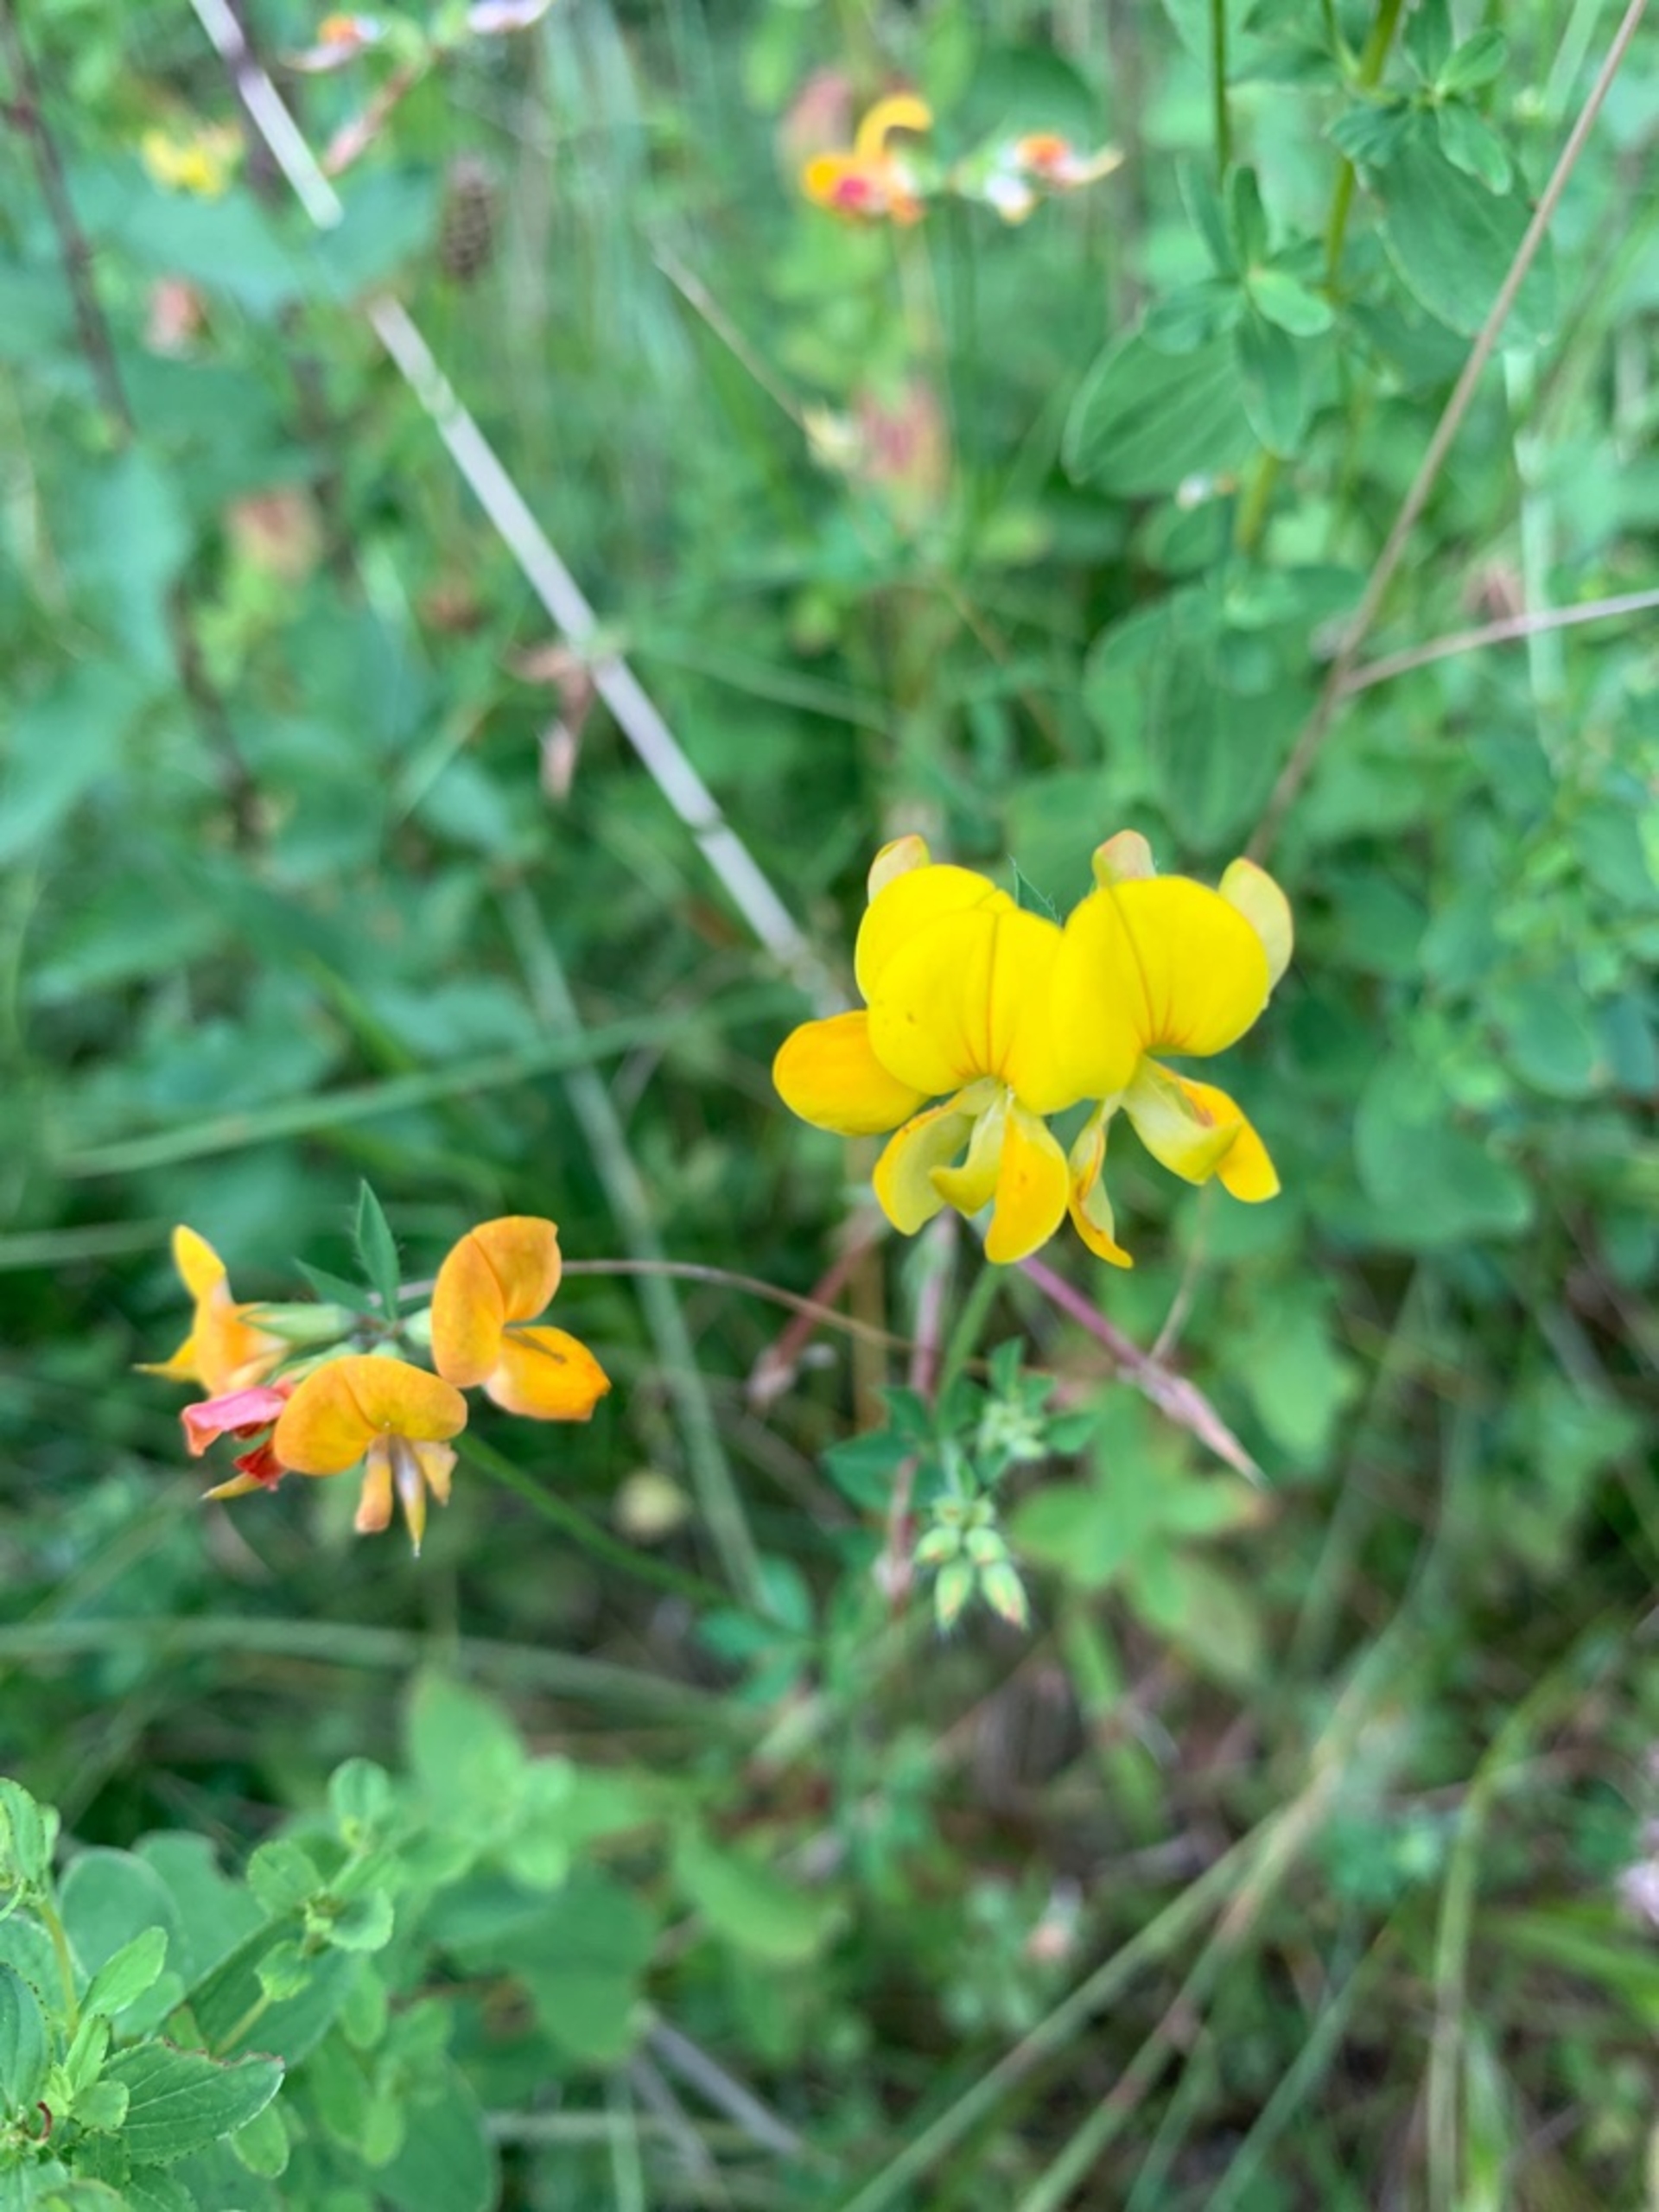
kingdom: Plantae
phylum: Tracheophyta
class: Magnoliopsida
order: Fabales
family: Fabaceae
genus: Lotus
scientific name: Lotus corniculatus
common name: Almindelig kællingetand
